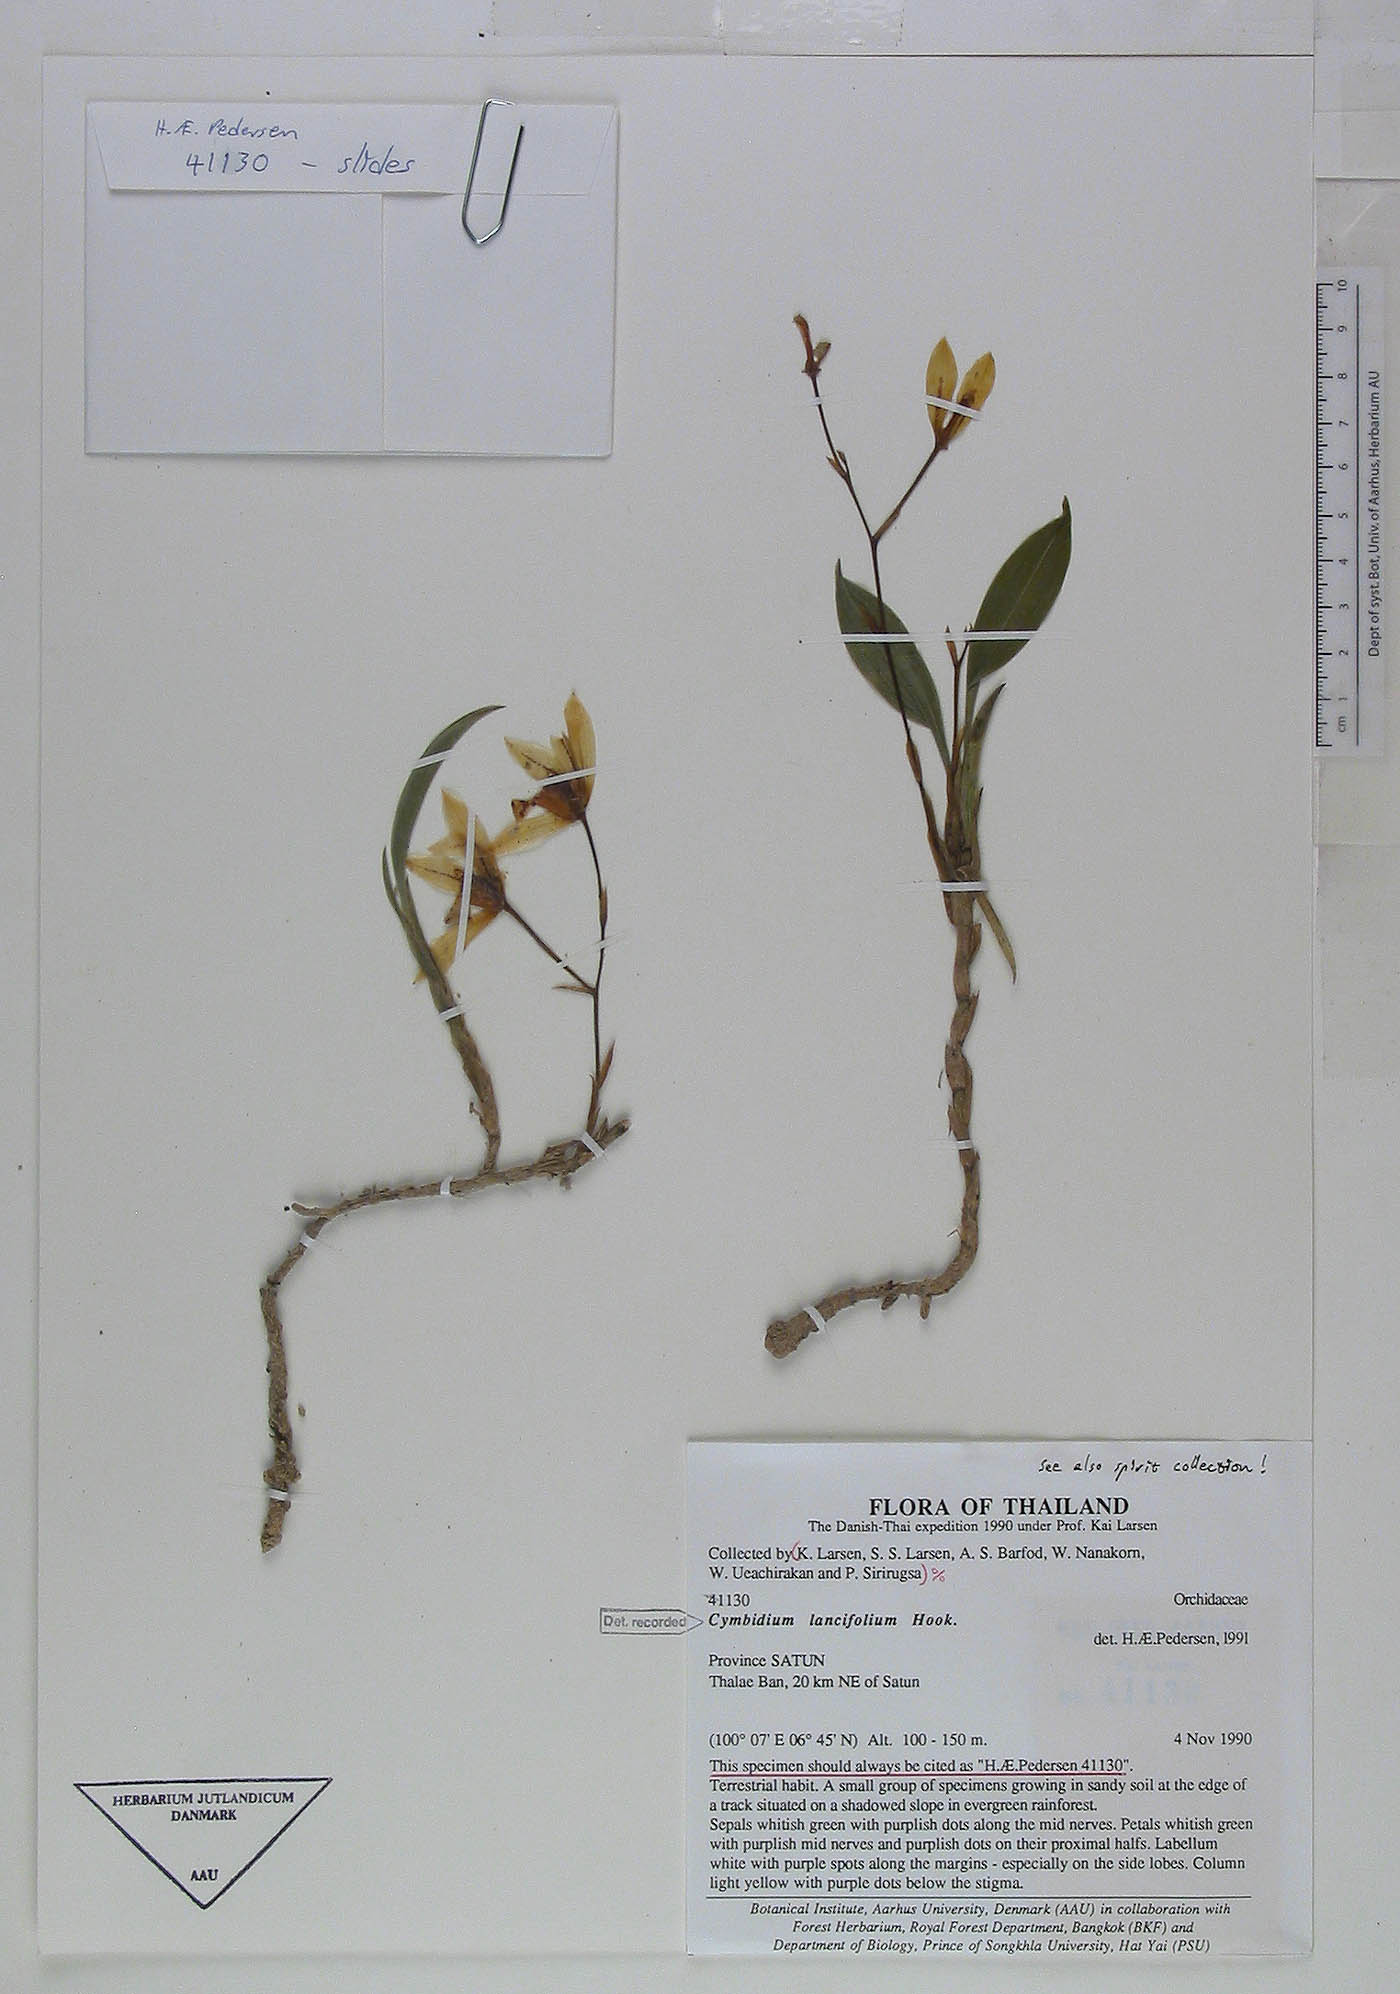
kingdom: Plantae
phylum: Tracheophyta
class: Liliopsida
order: Asparagales
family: Orchidaceae
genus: Cymbidium
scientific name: Cymbidium lancifolium
